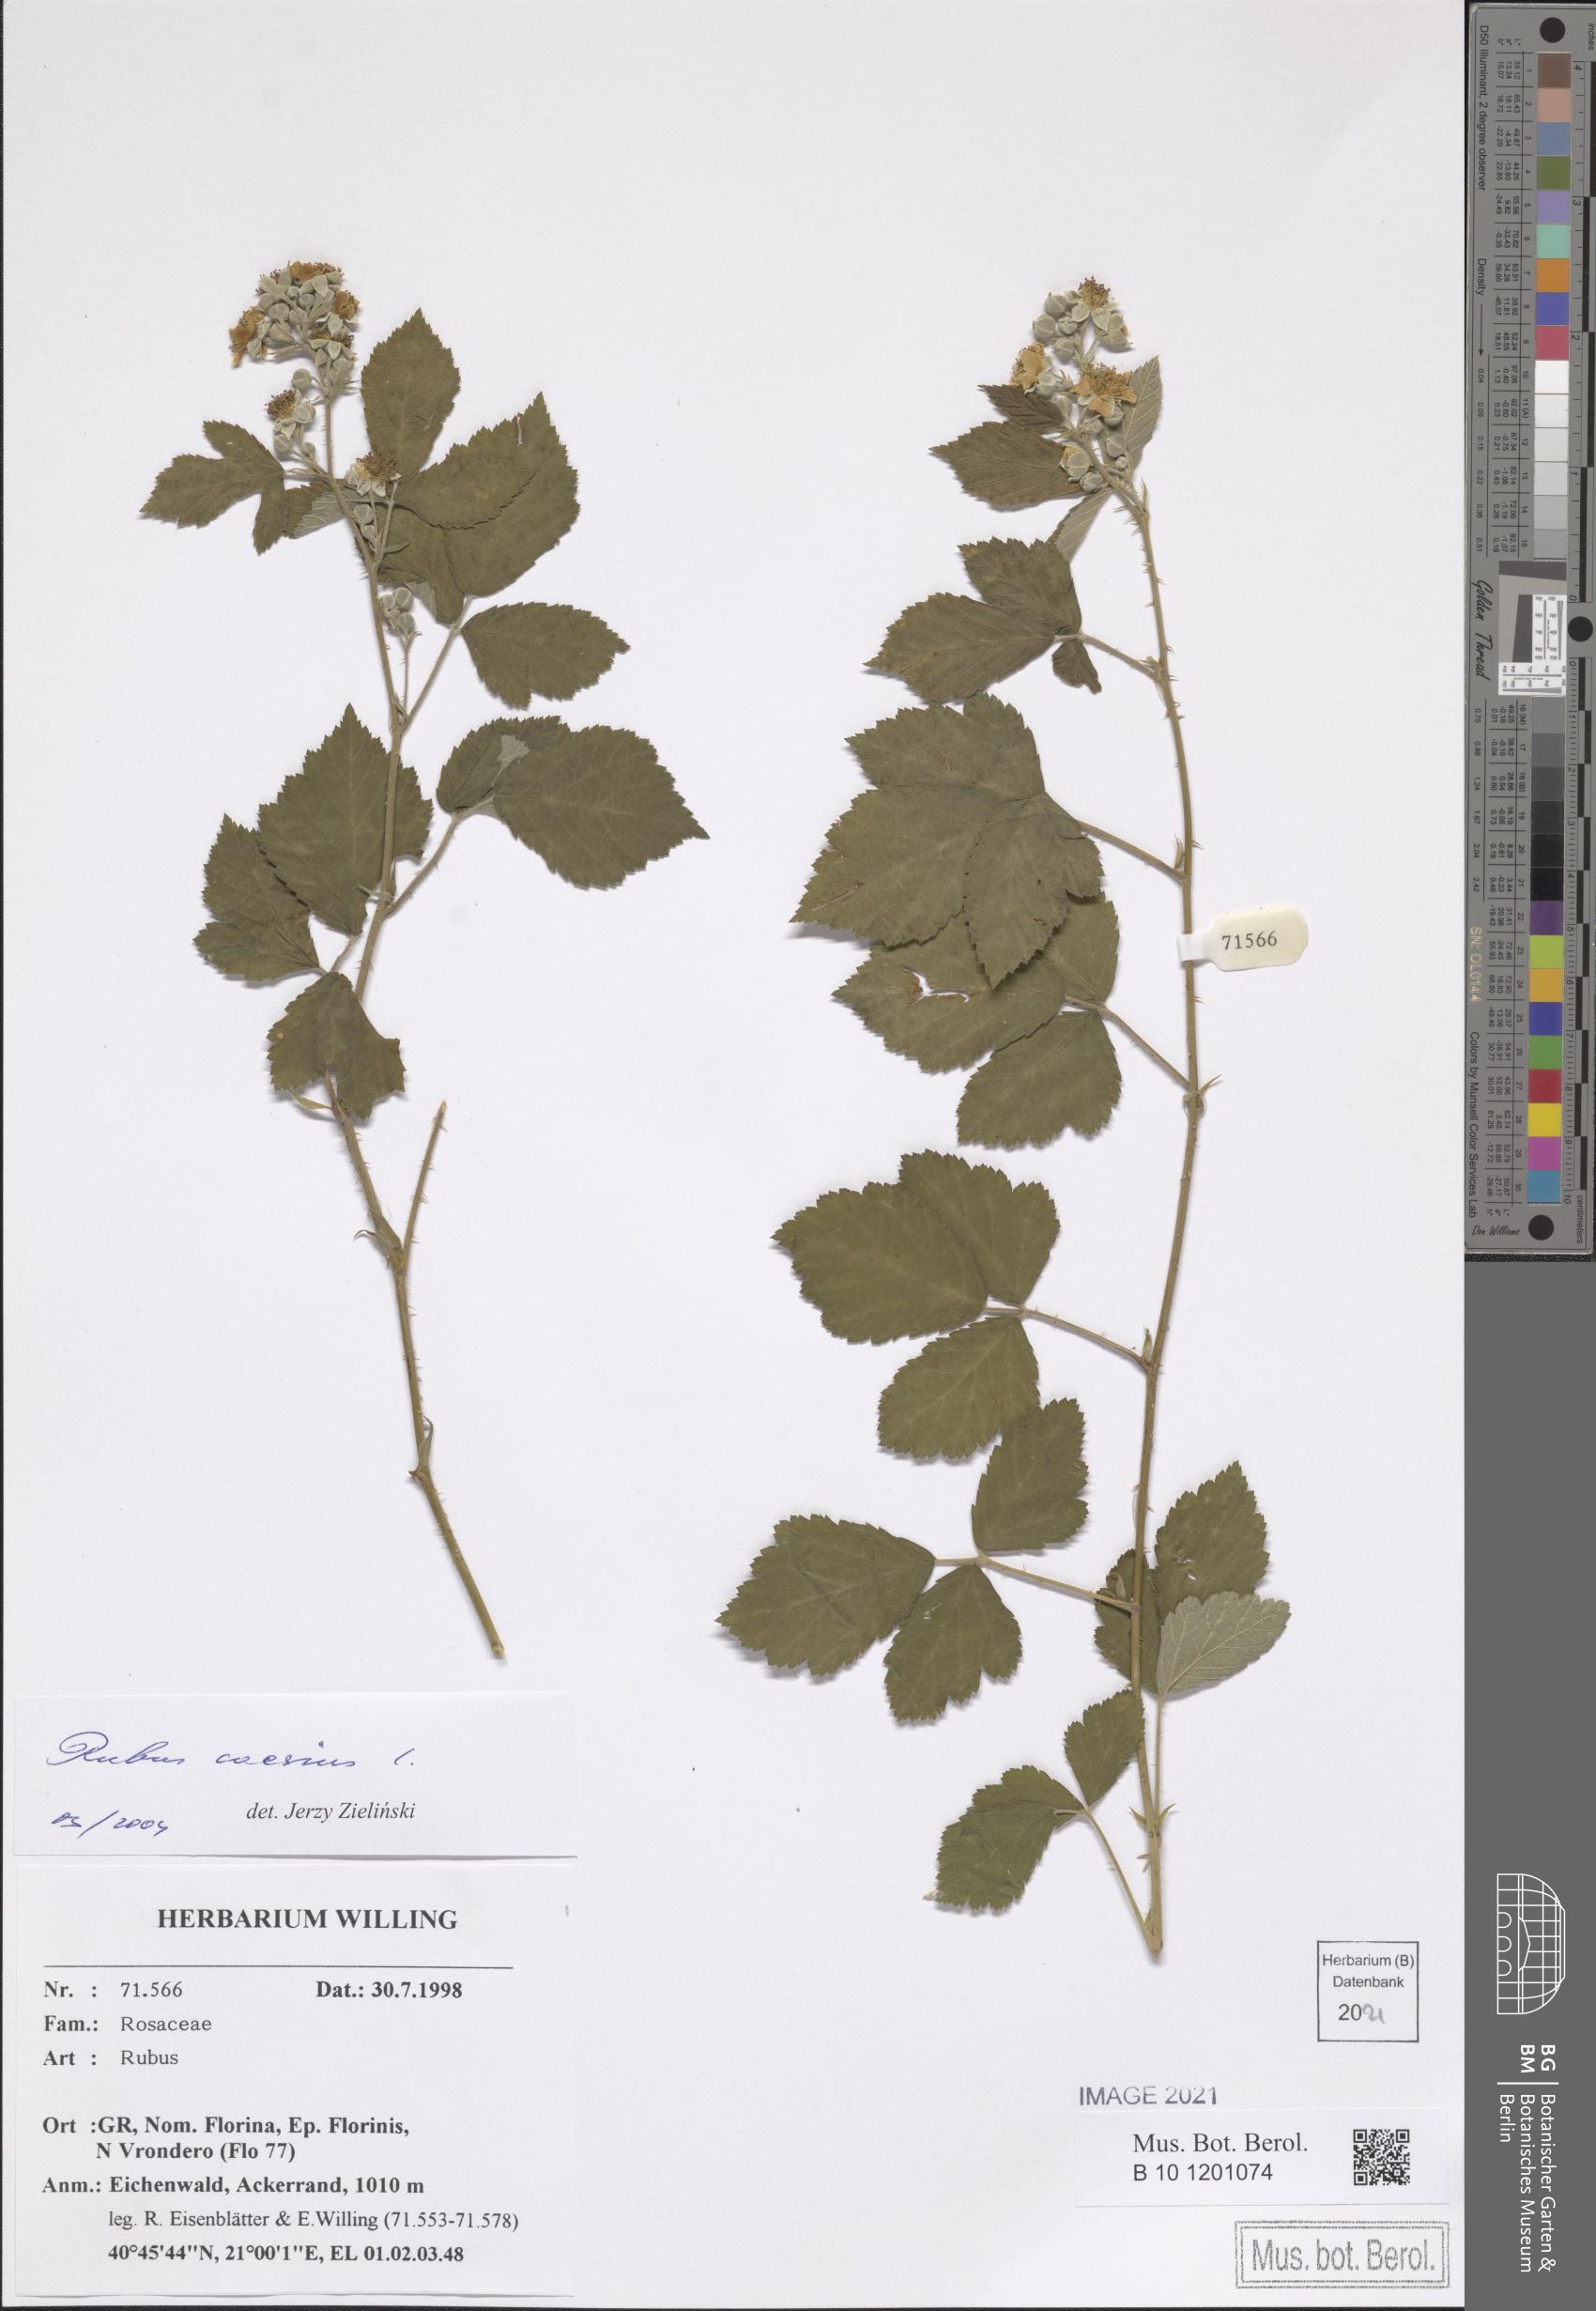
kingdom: Plantae
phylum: Tracheophyta
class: Magnoliopsida
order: Rosales
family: Rosaceae
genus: Rubus
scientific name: Rubus caesius
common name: Dewberry
